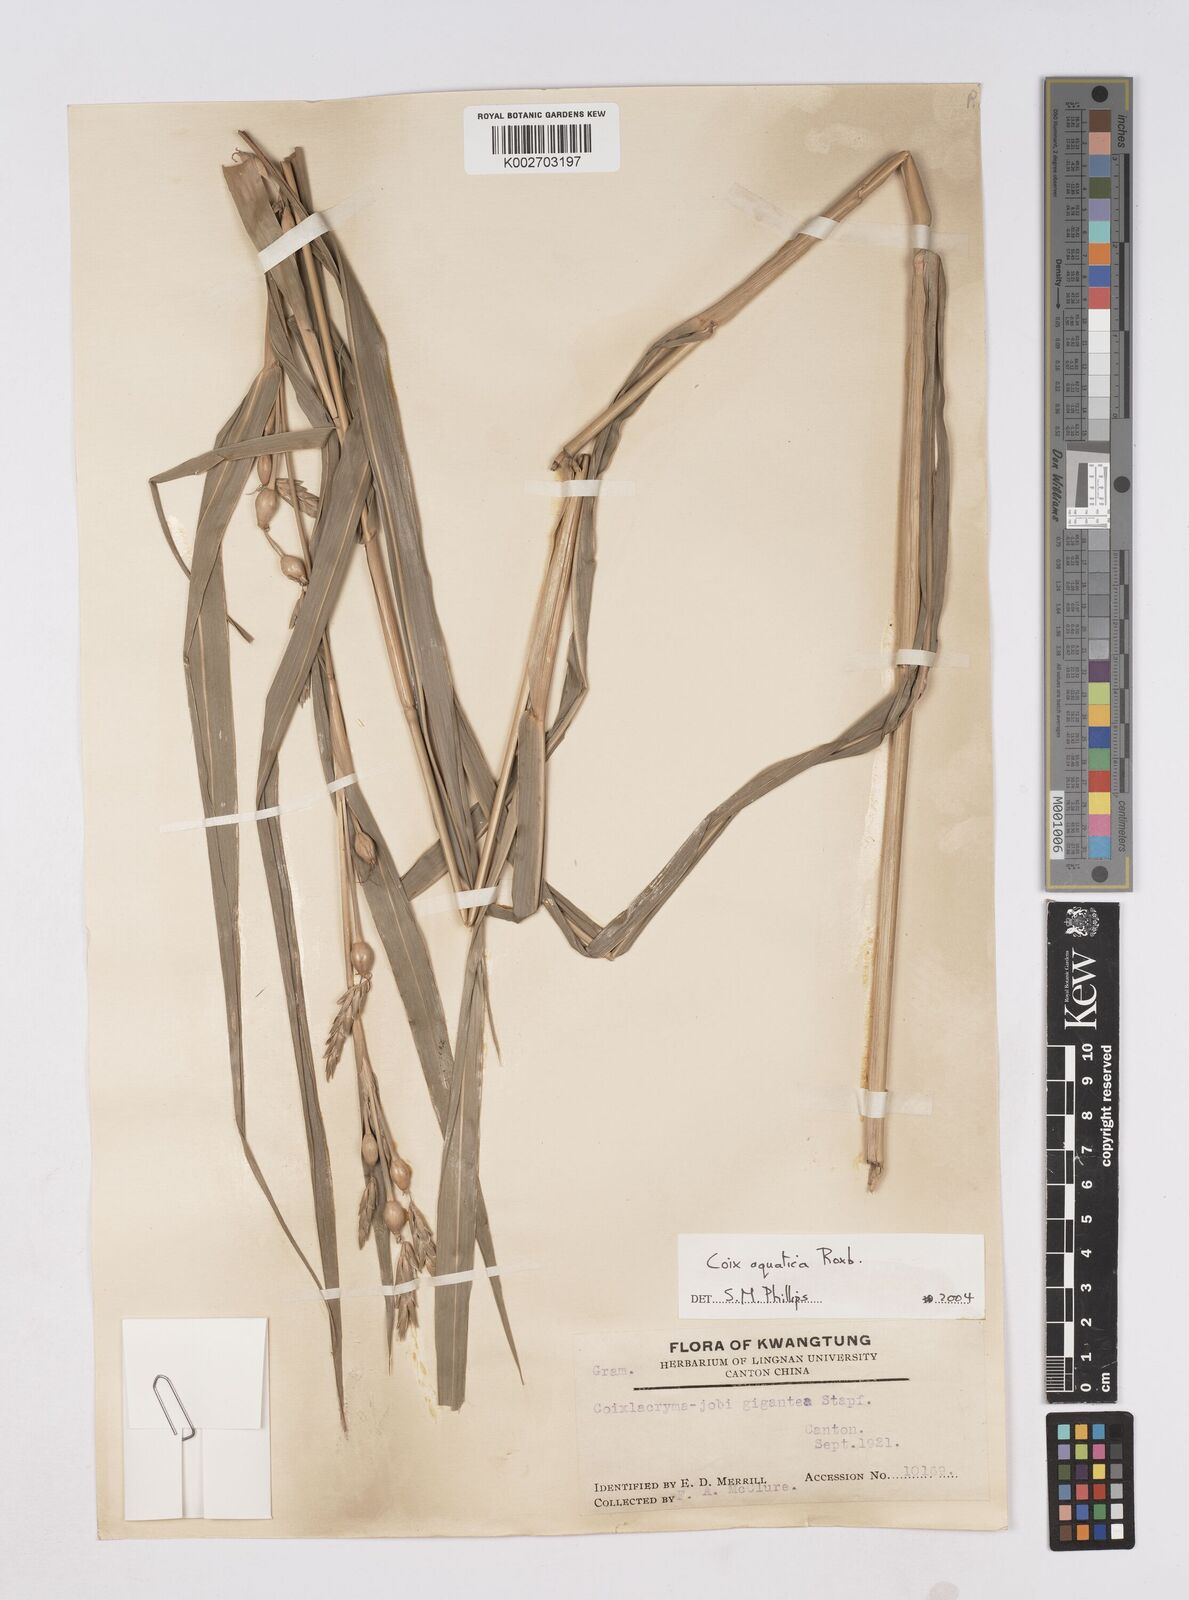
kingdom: Plantae
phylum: Tracheophyta
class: Liliopsida
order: Poales
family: Poaceae
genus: Coix
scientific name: Coix aquatica
